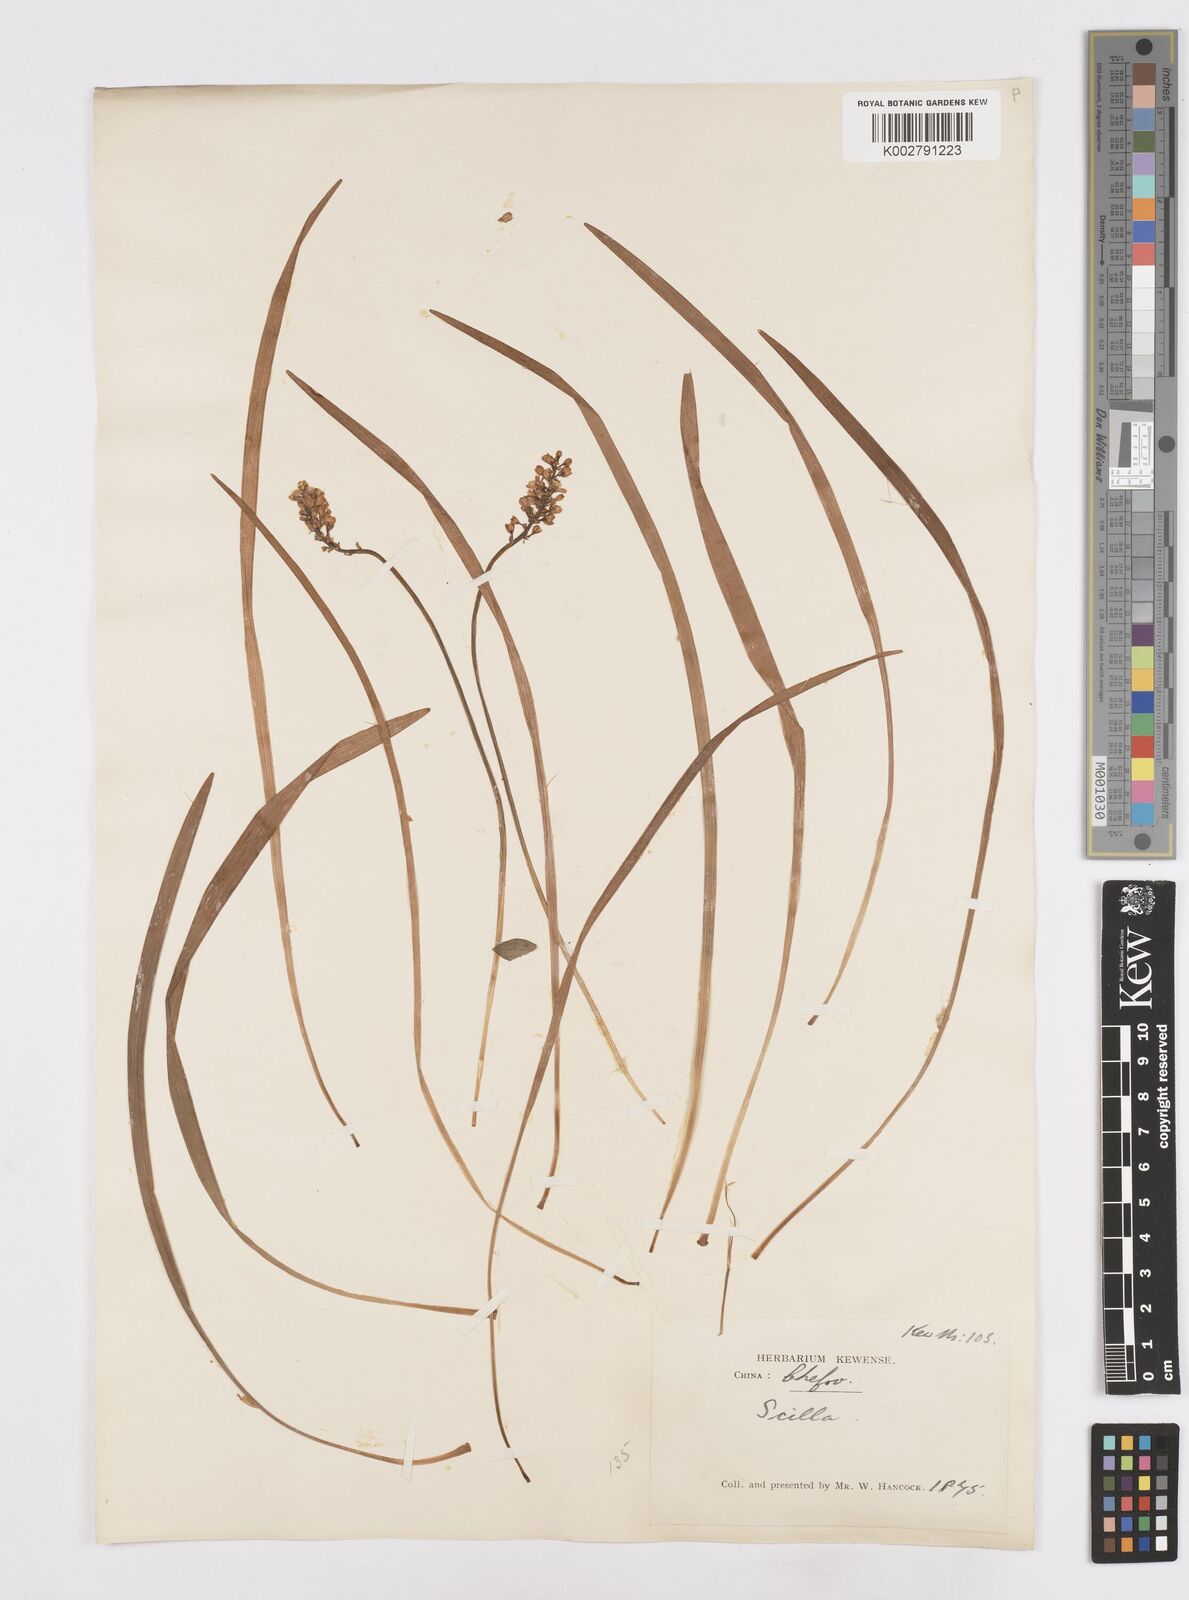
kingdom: Plantae
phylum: Tracheophyta
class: Liliopsida
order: Liliales
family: Melanthiaceae
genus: Helonias
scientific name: Helonias breviscapa
